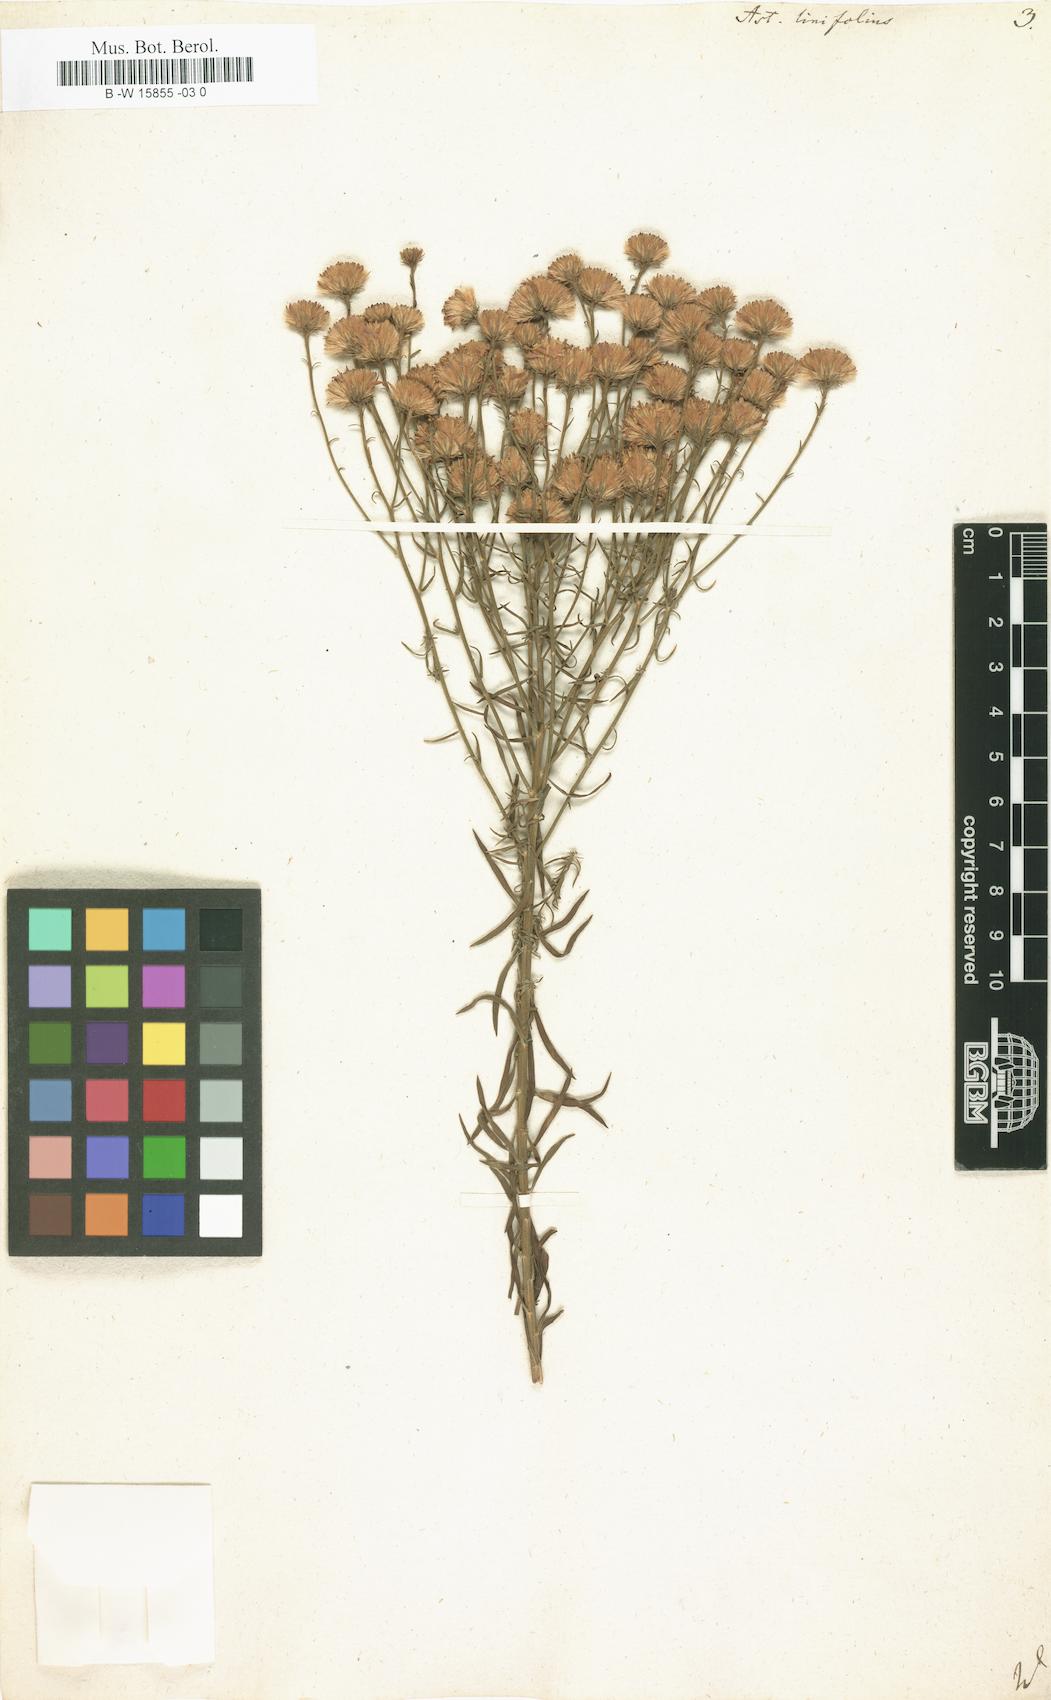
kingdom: Plantae
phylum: Tracheophyta
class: Magnoliopsida
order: Asterales
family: Asteraceae
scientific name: Asteraceae
